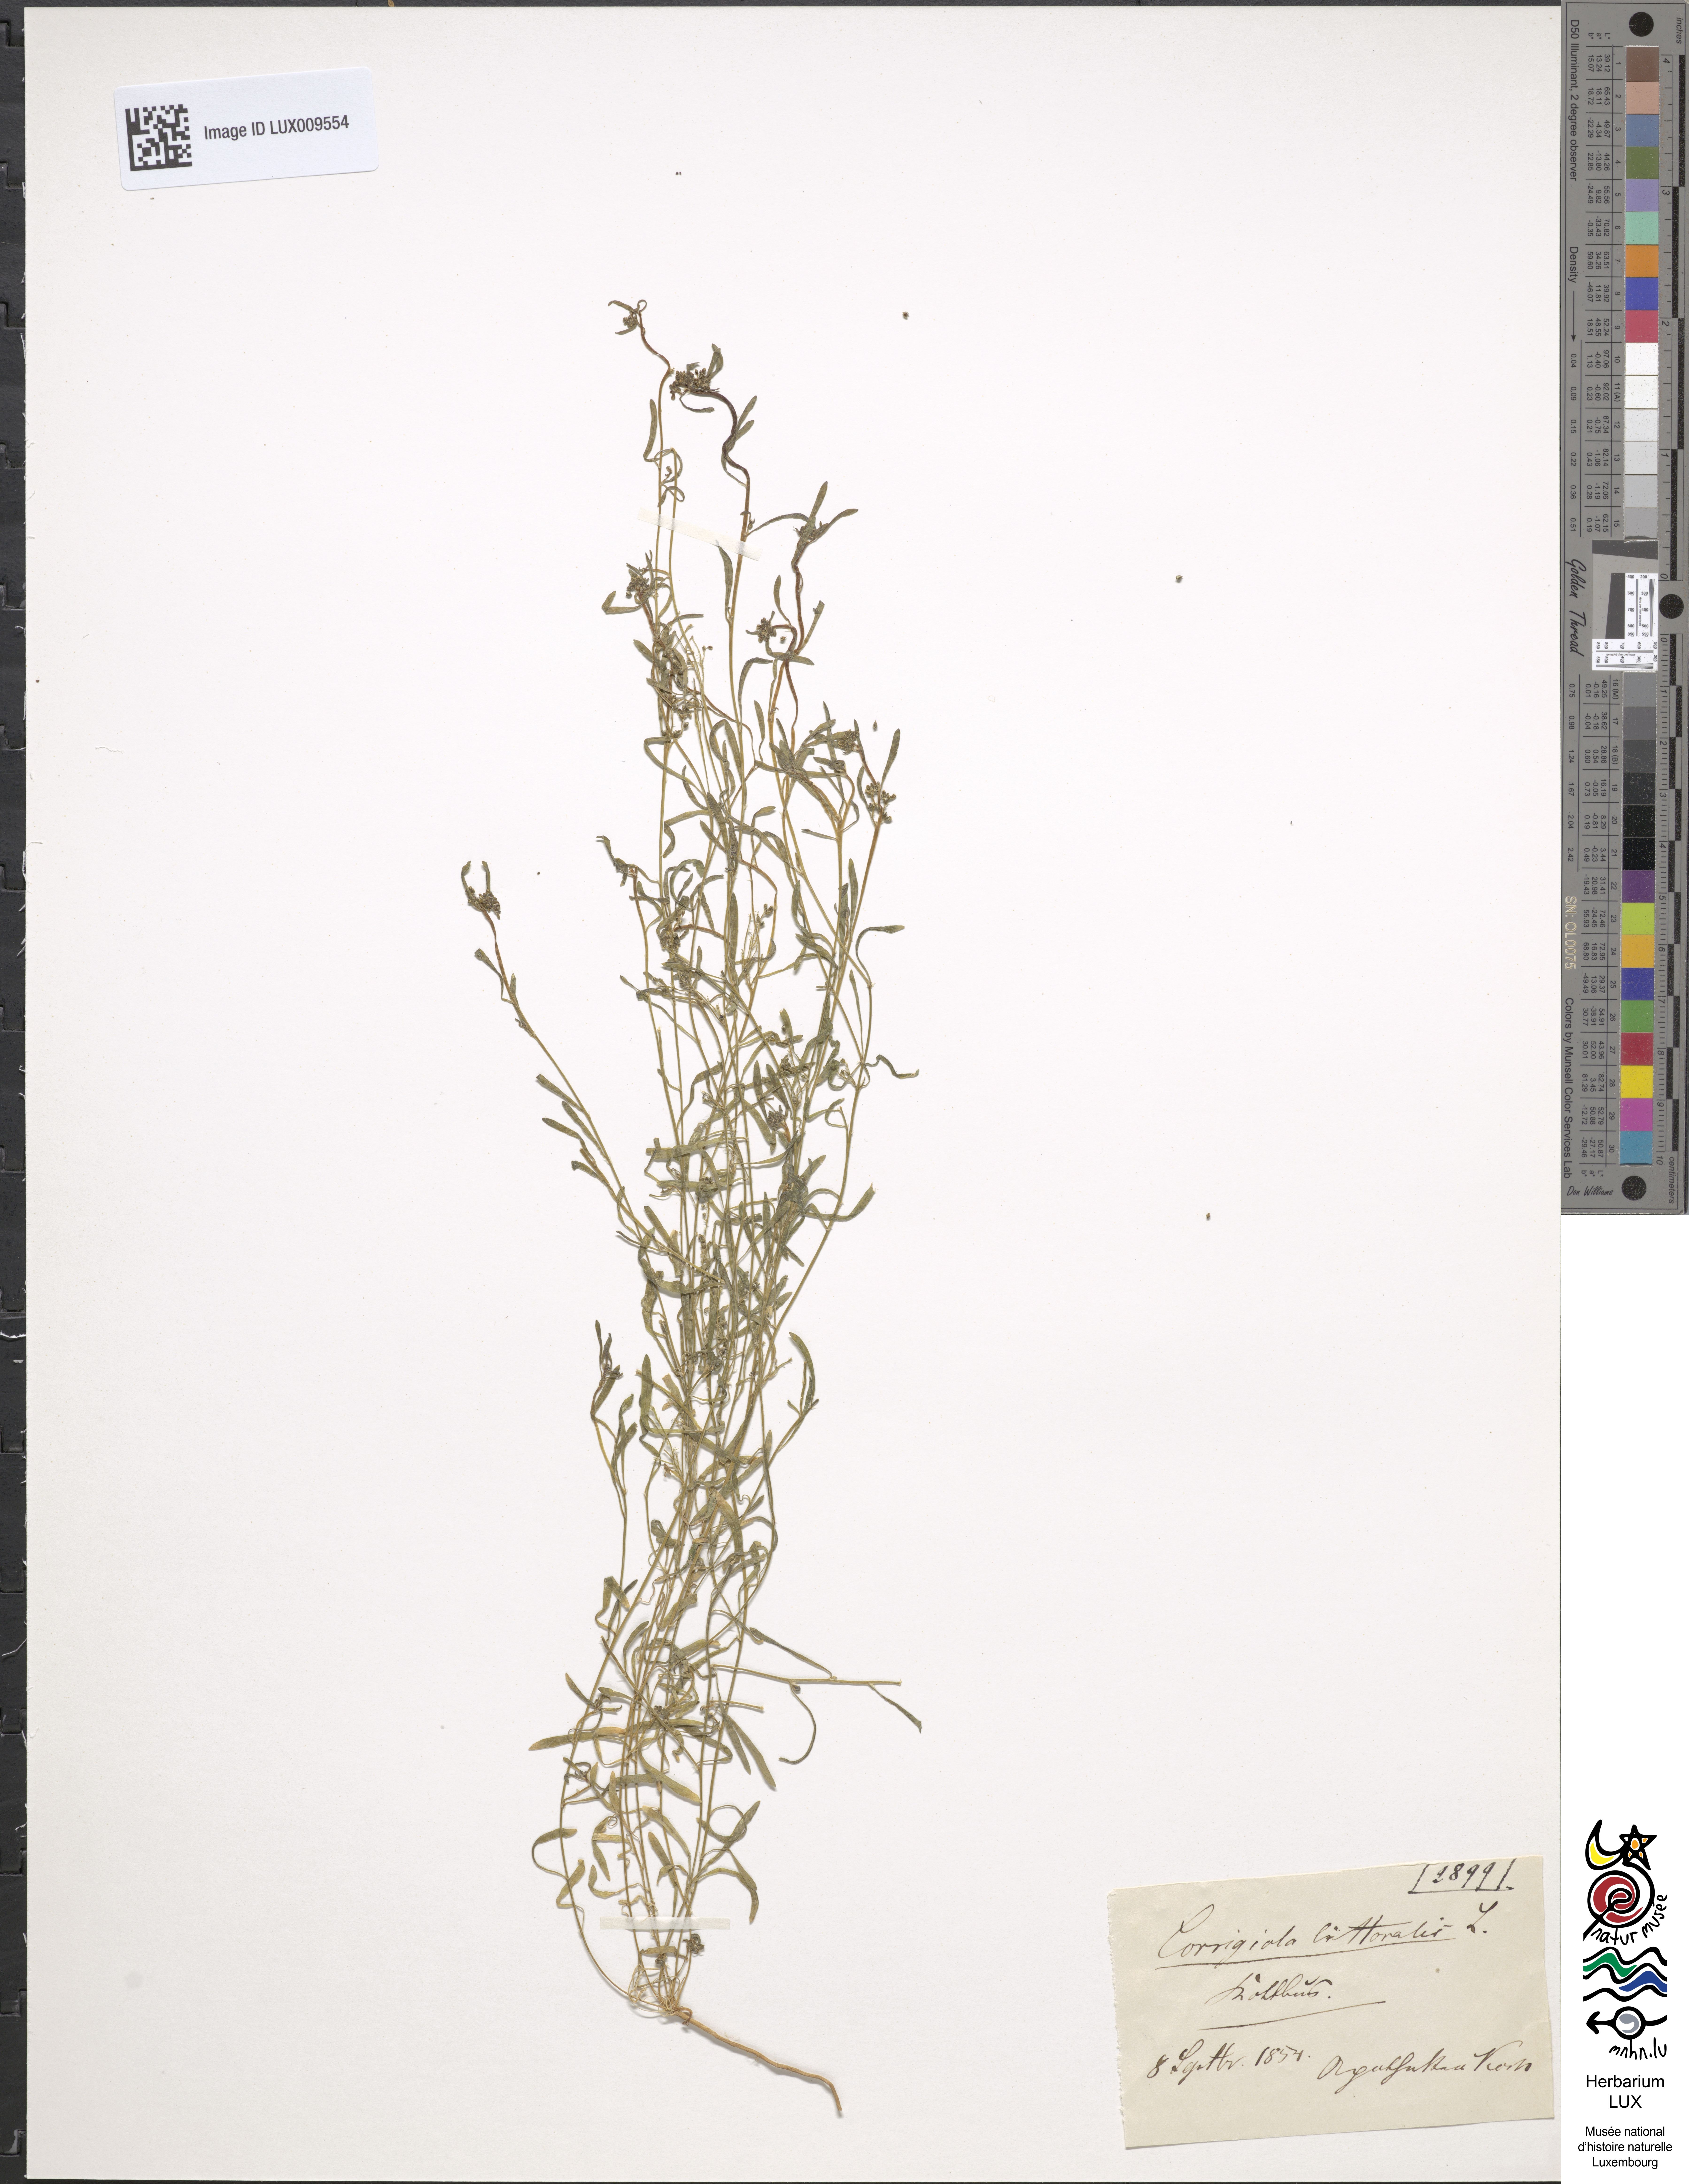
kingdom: Plantae
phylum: Tracheophyta
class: Magnoliopsida
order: Caryophyllales
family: Caryophyllaceae
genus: Corrigiola
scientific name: Corrigiola litoralis
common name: Strapwort
